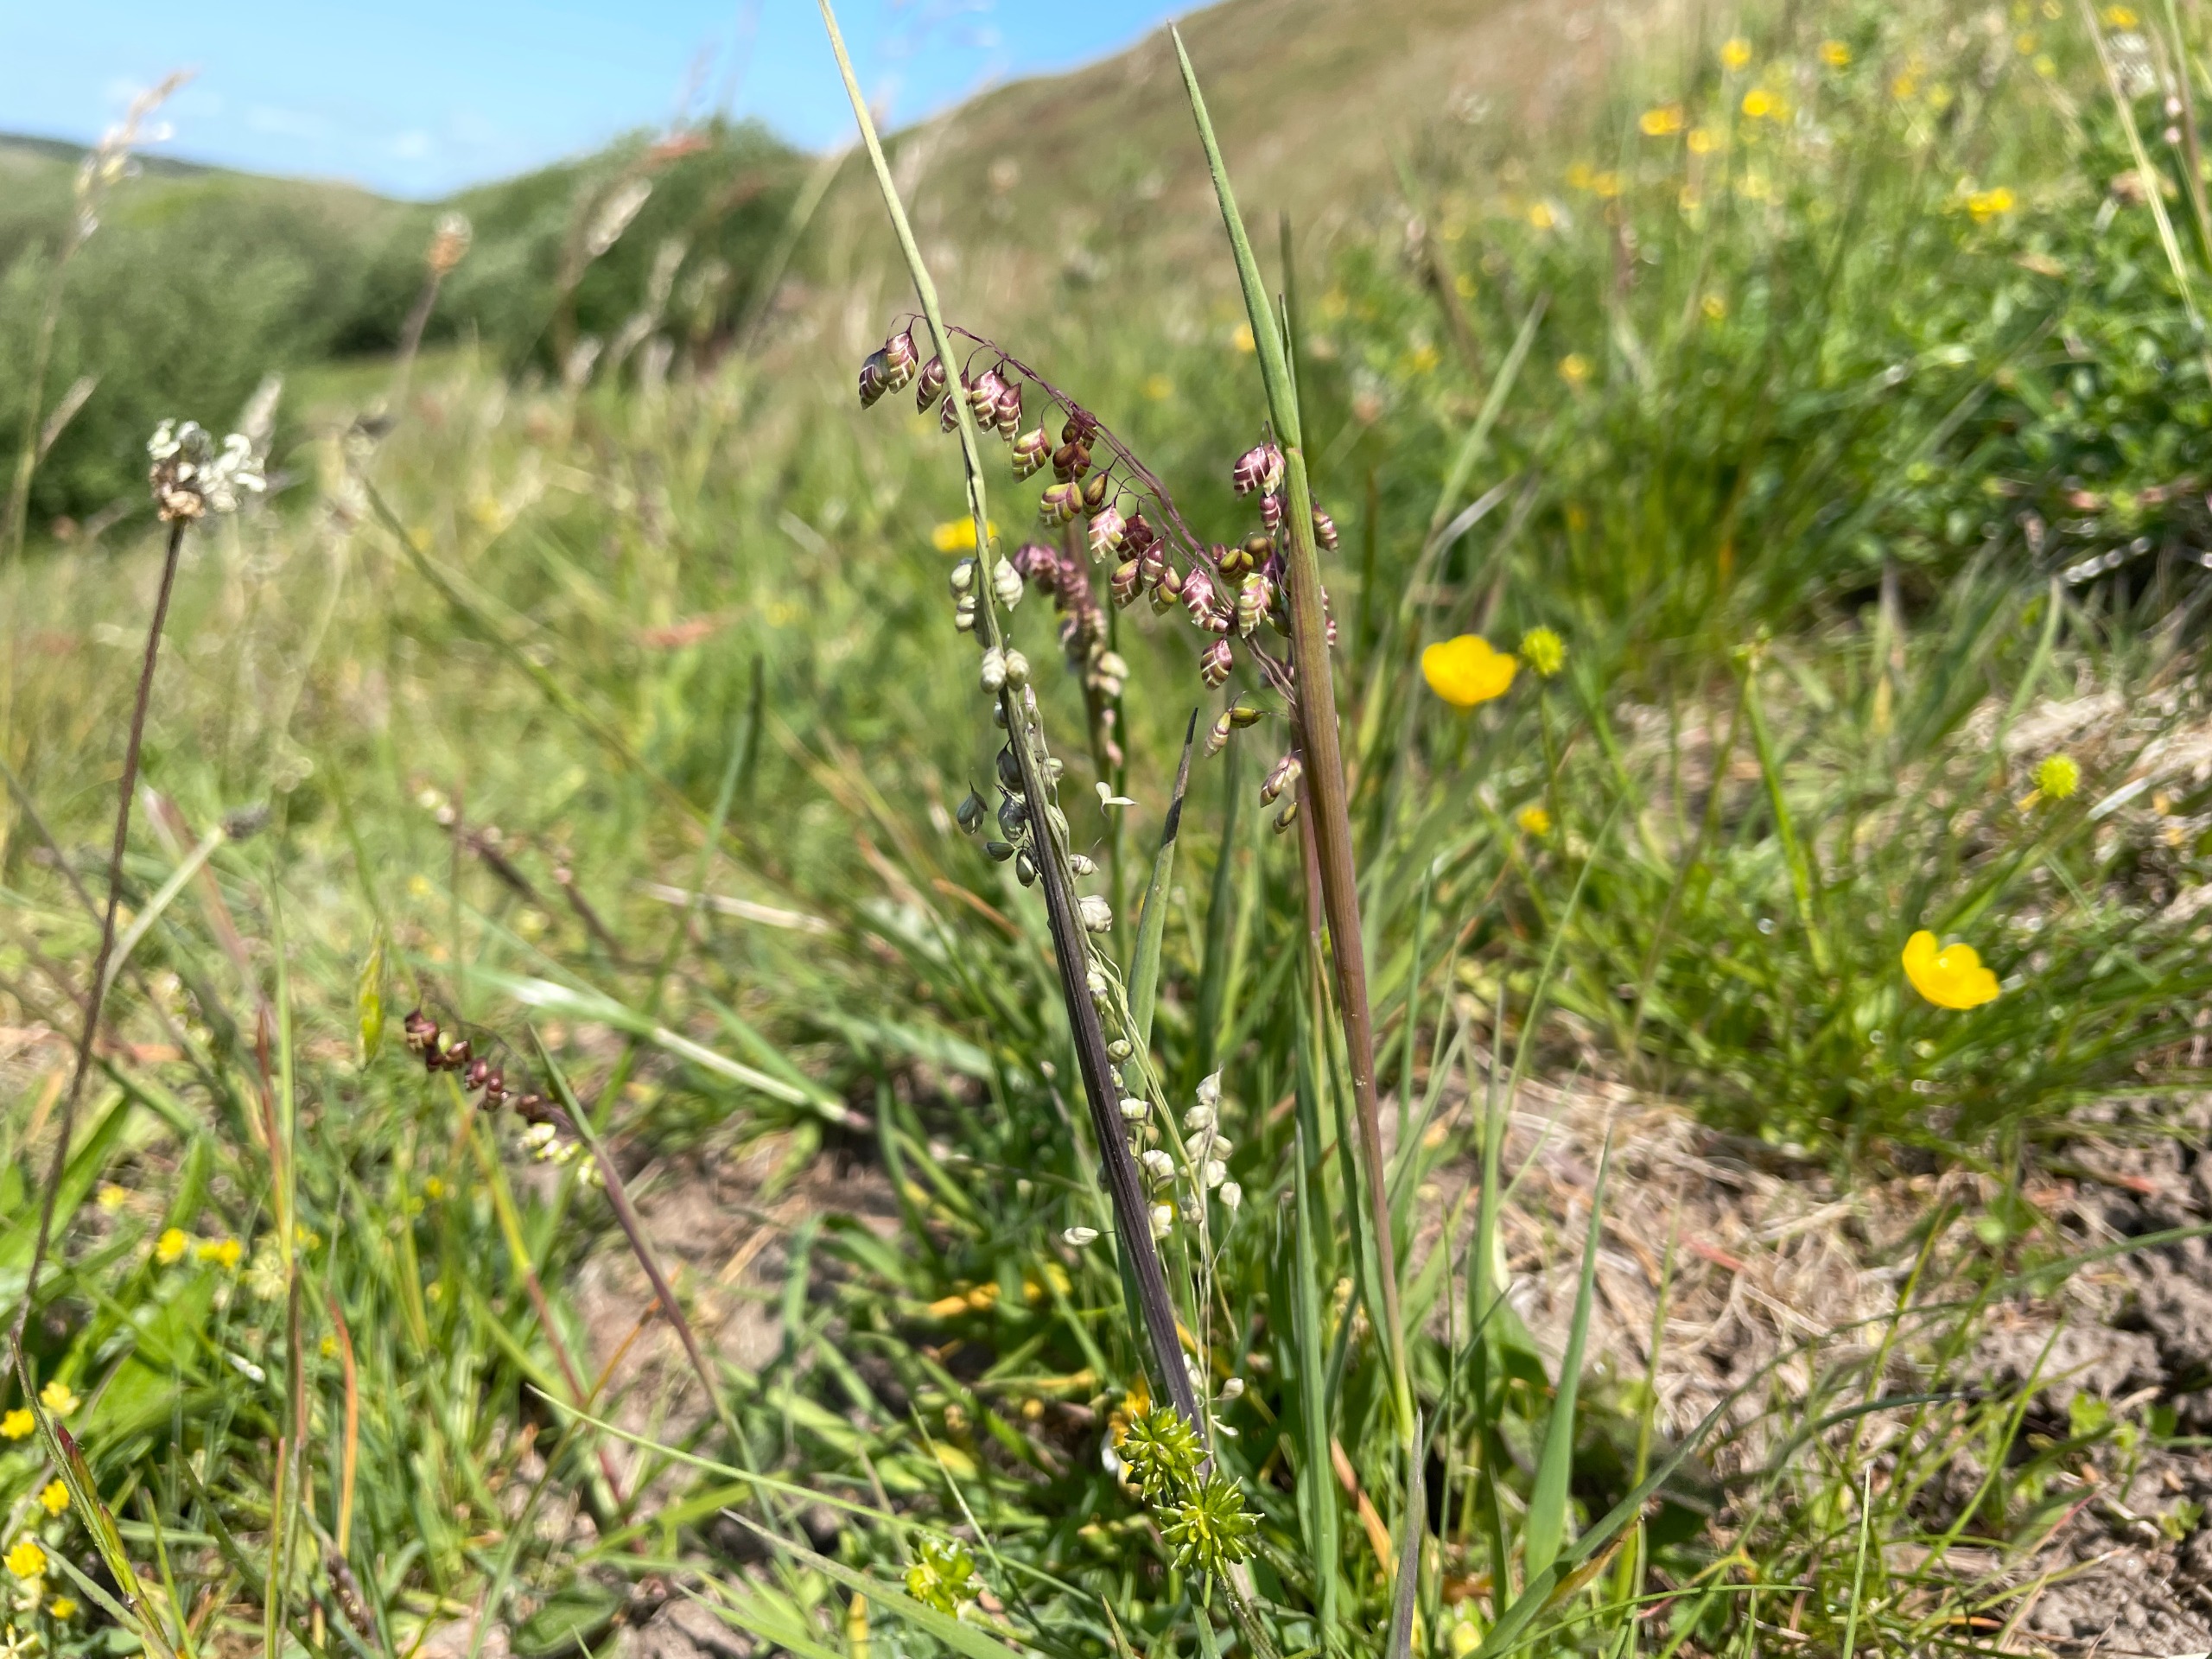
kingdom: Plantae
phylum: Tracheophyta
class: Liliopsida
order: Poales
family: Poaceae
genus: Briza
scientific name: Briza media
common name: Hjertegræs
